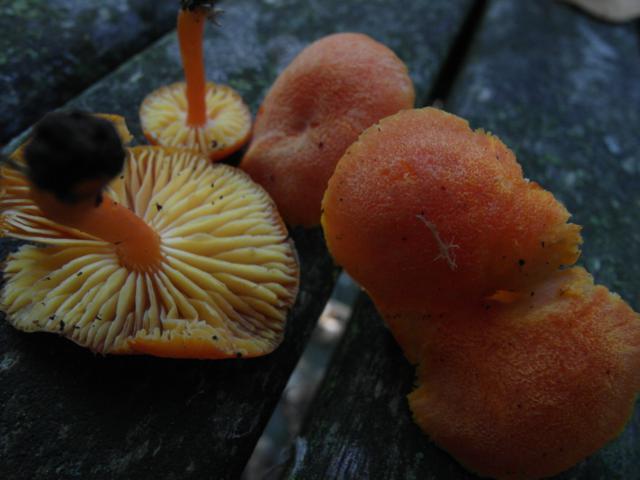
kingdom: Fungi
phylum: Basidiomycota
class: Agaricomycetes
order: Agaricales
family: Hygrophoraceae
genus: Hygrocybe
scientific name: Hygrocybe miniata
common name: mønje-vokshat
